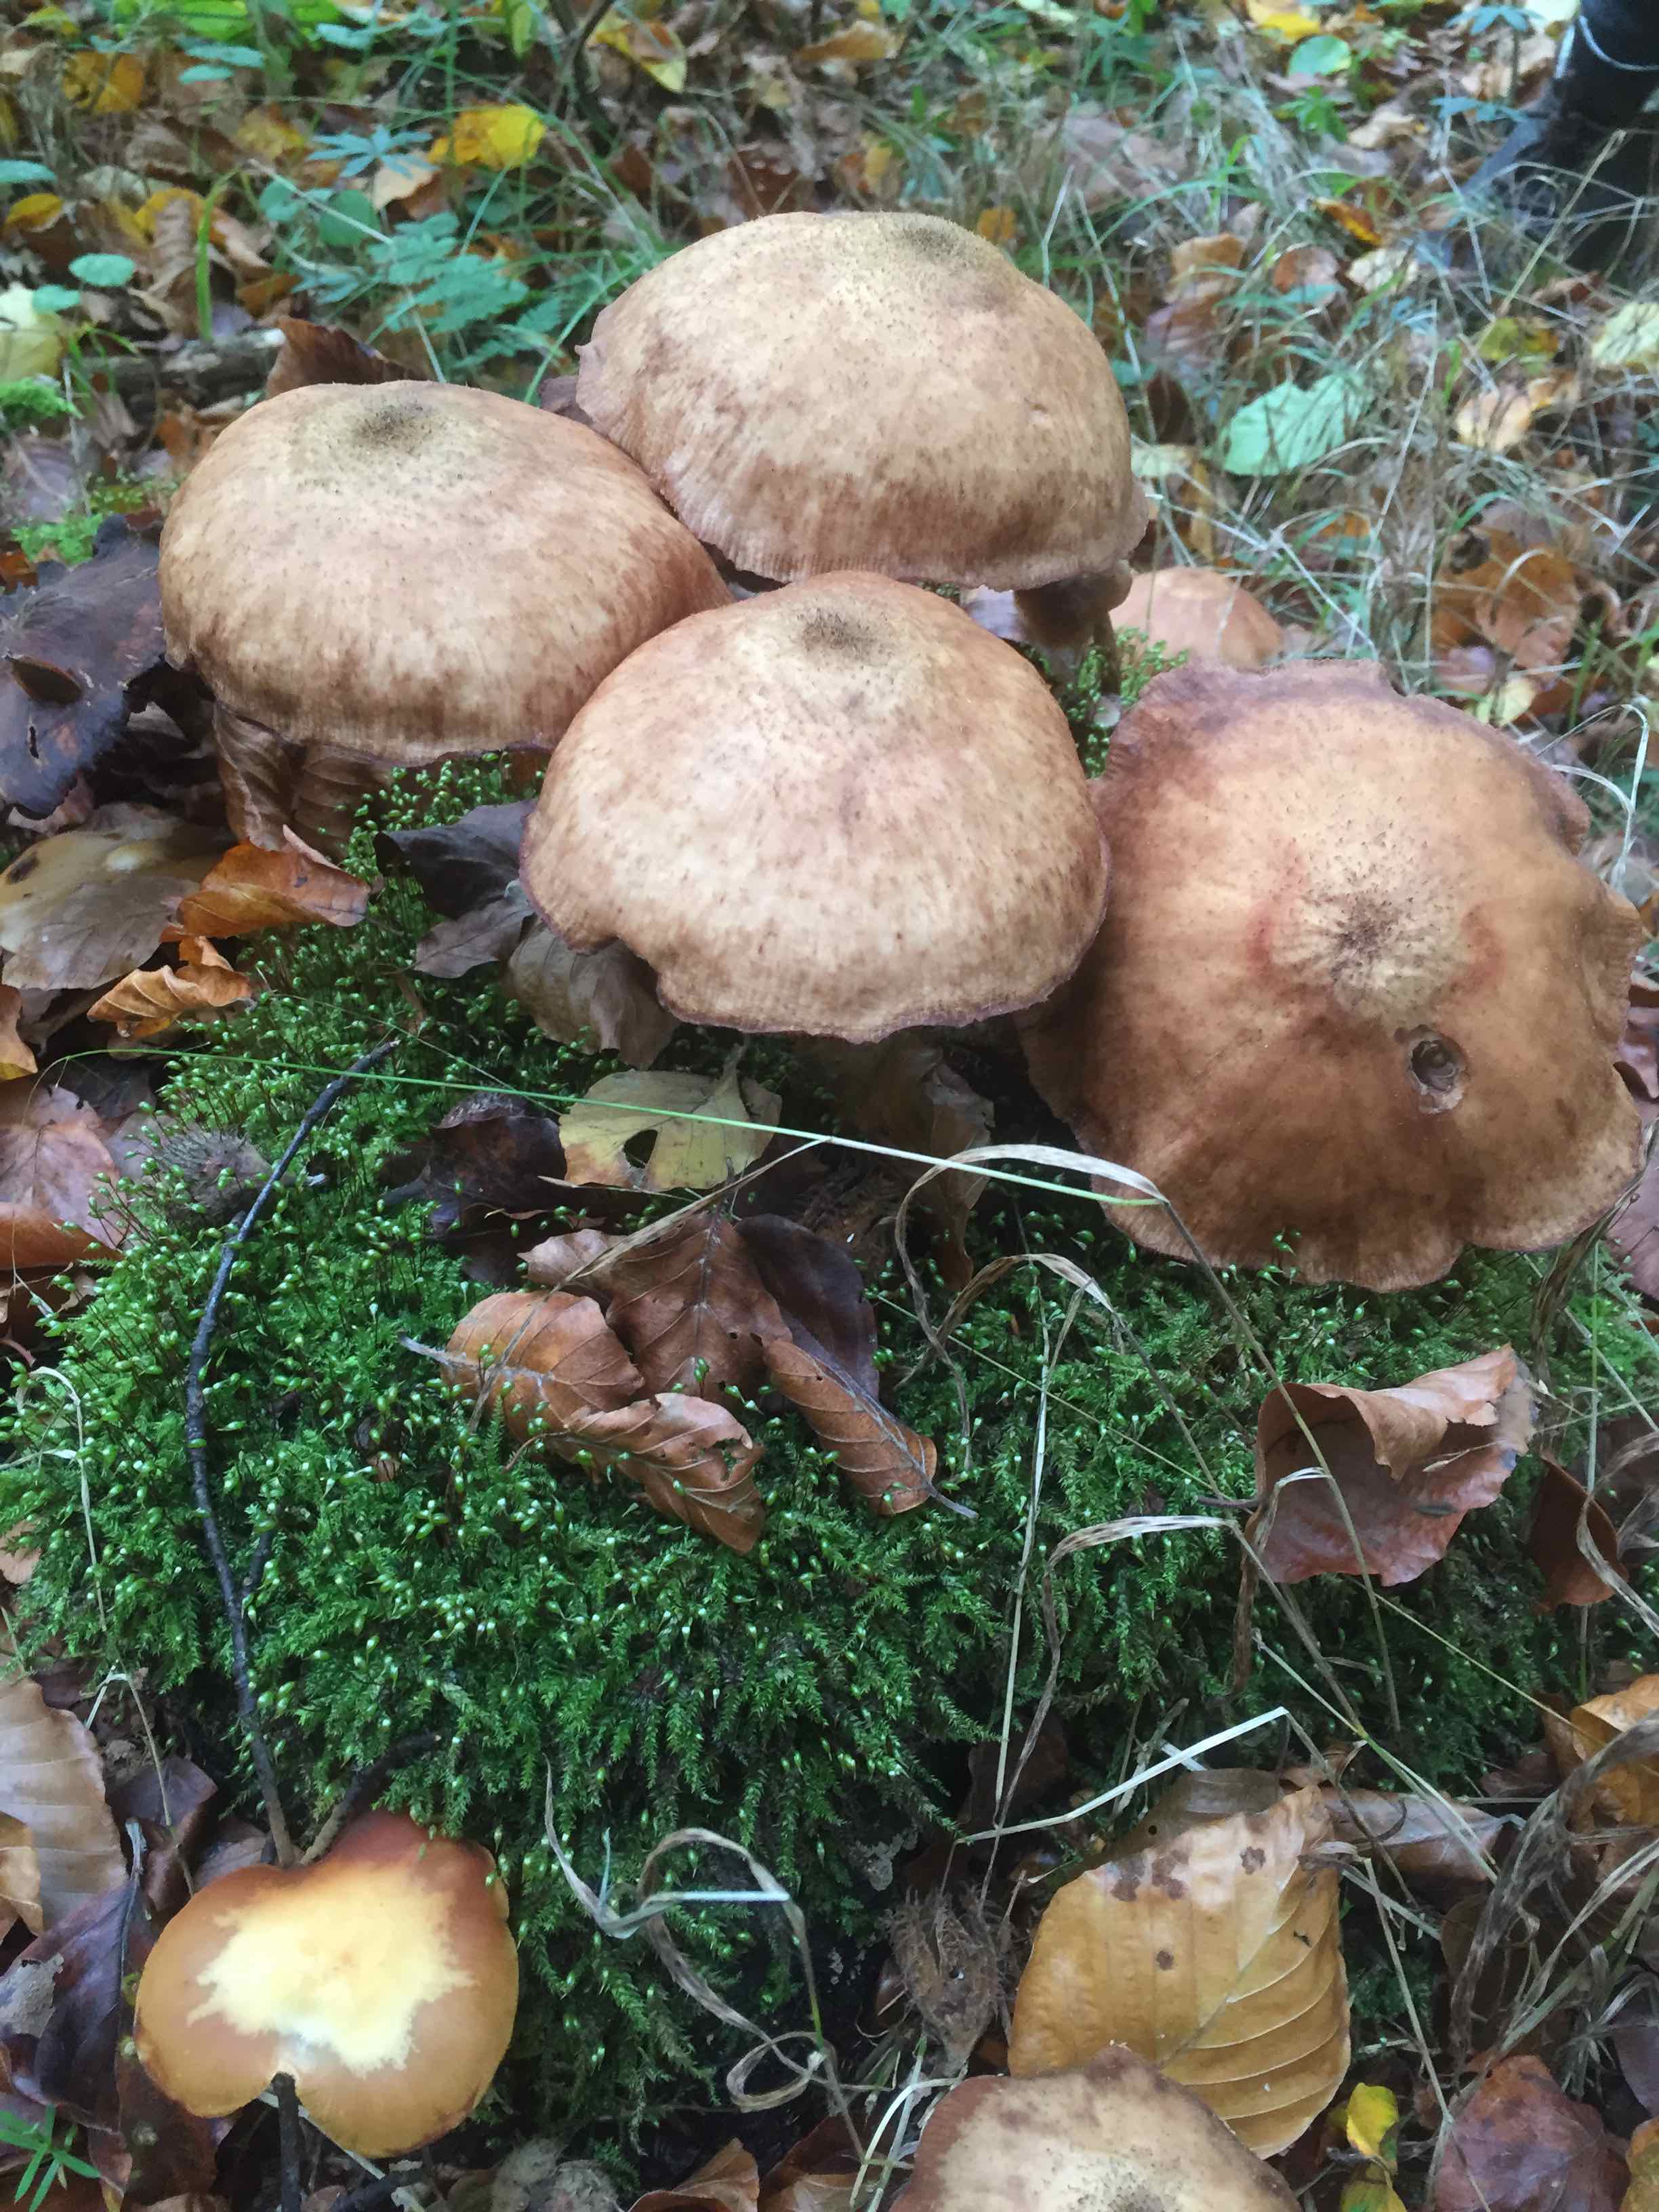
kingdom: Fungi
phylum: Basidiomycota
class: Agaricomycetes
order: Agaricales
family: Physalacriaceae
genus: Armillaria
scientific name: Armillaria
